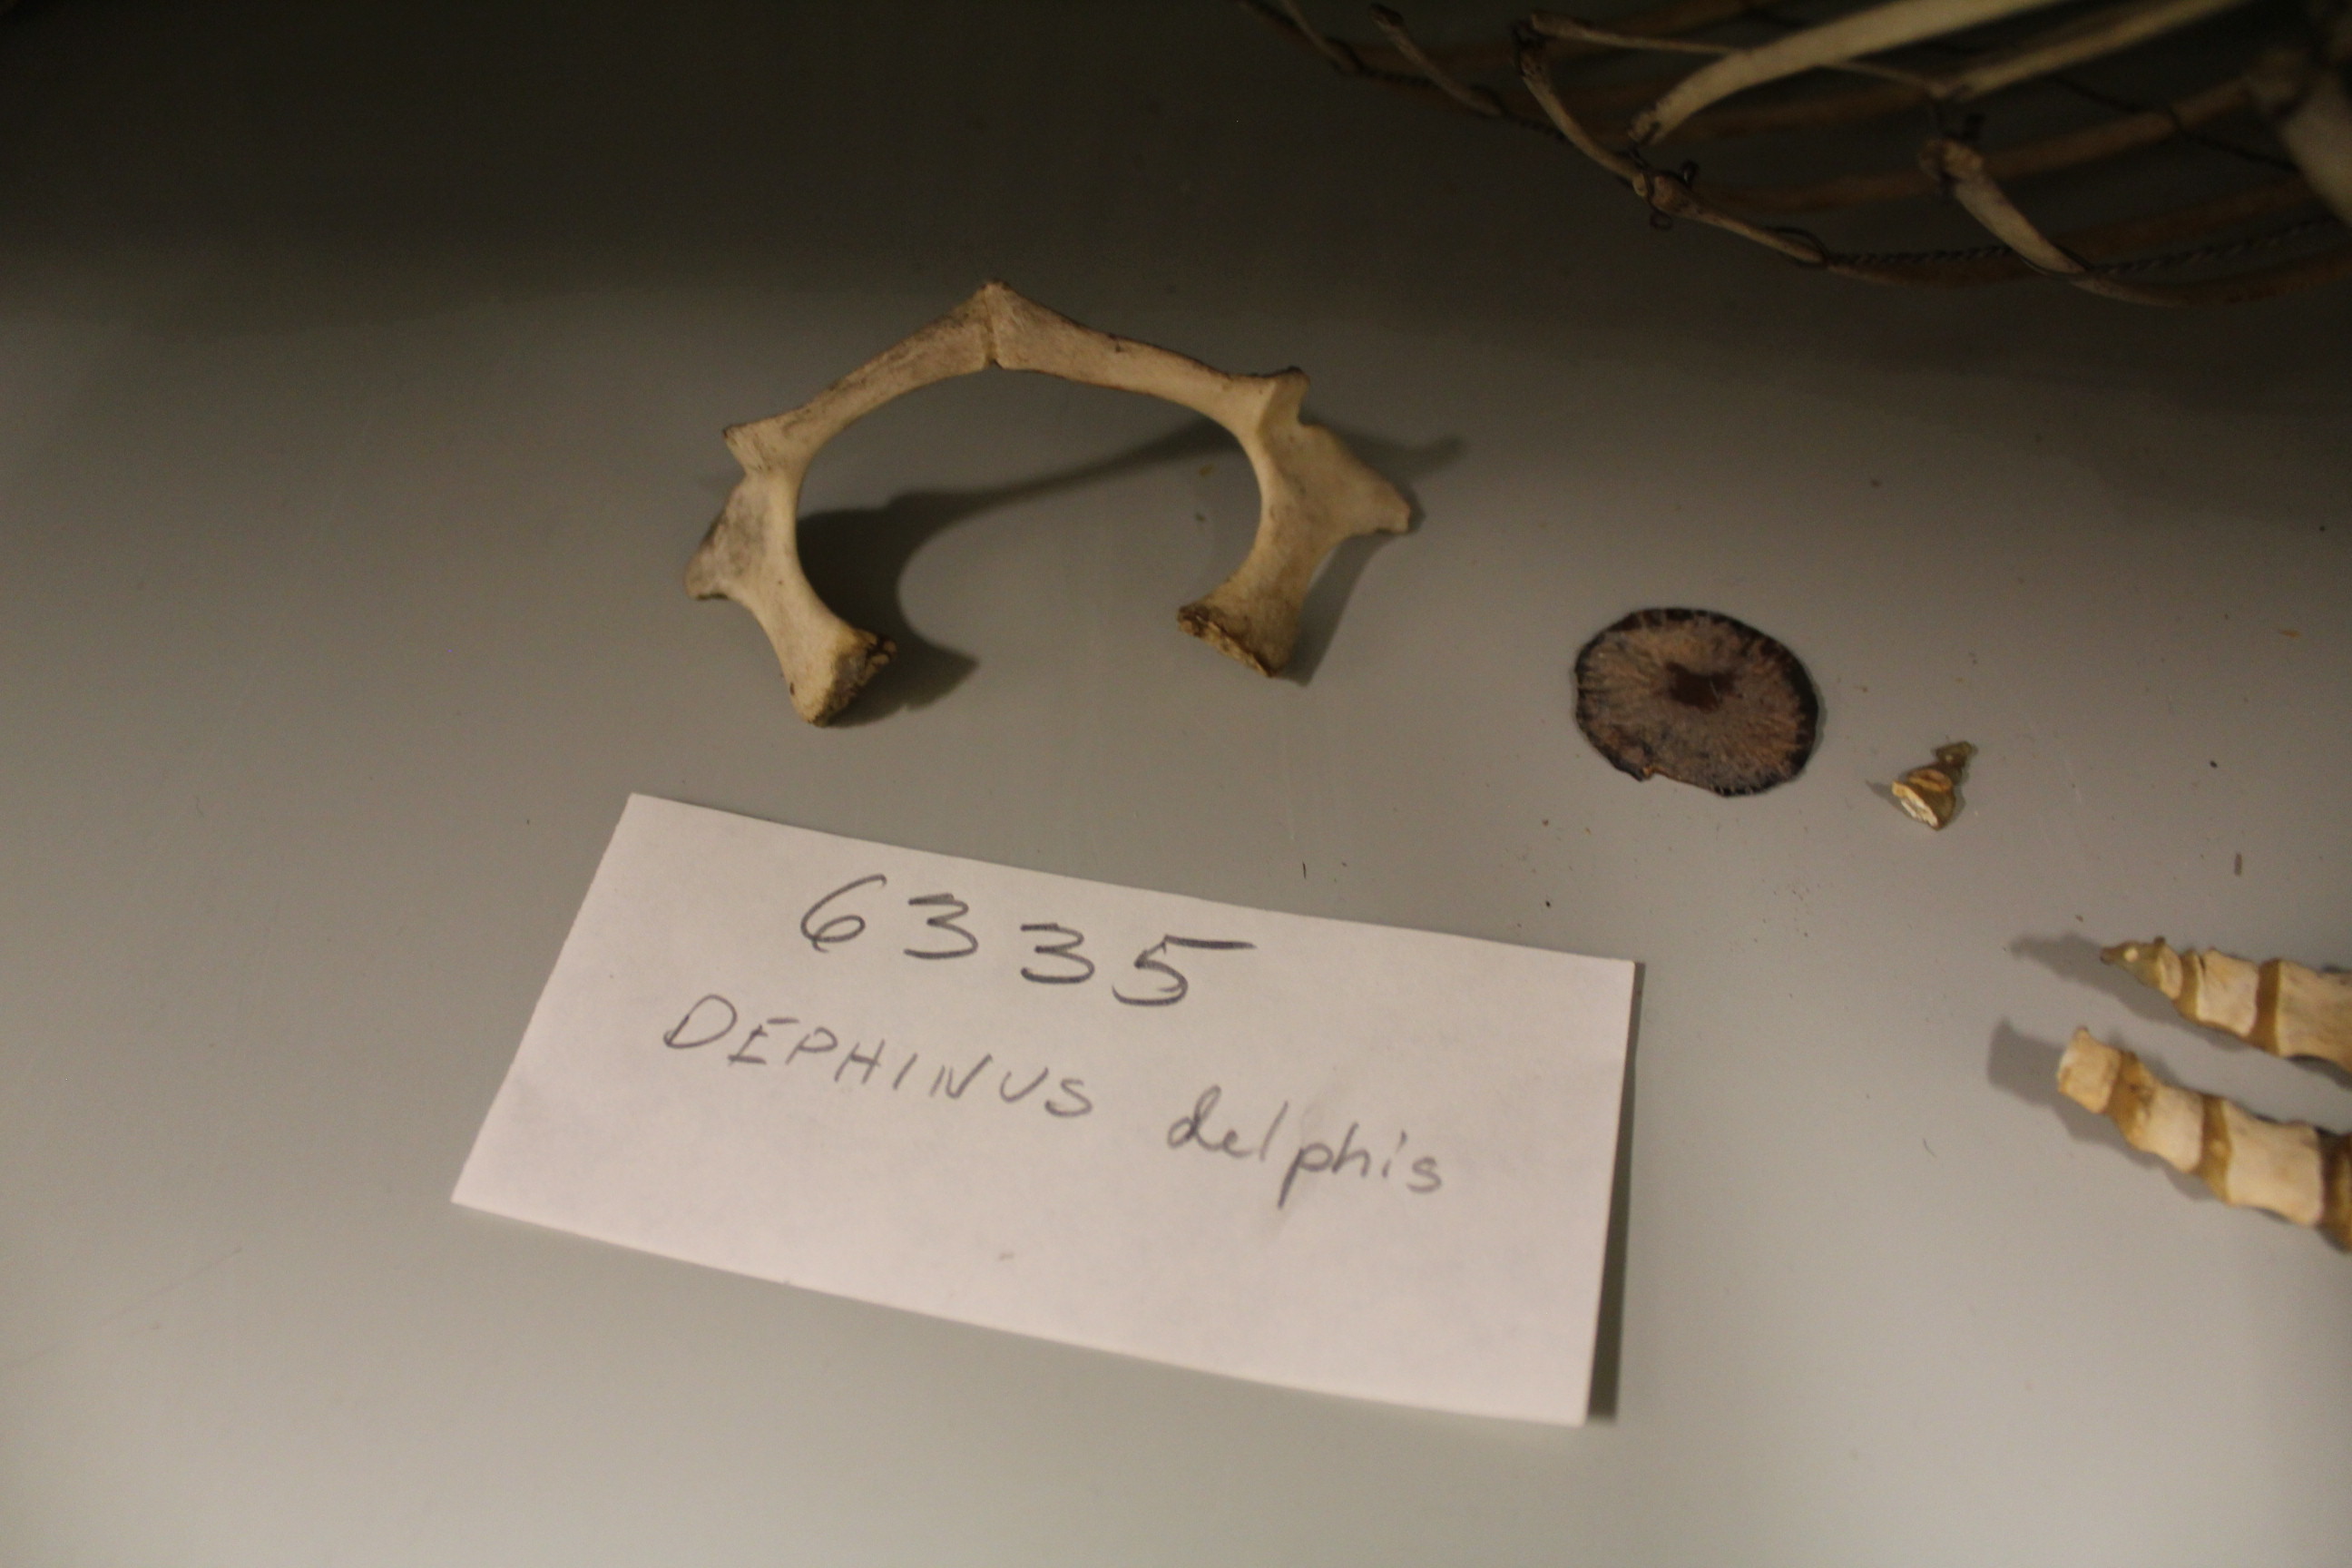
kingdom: Animalia
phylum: Chordata
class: Mammalia
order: Cetacea
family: Delphinidae
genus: Delphinus
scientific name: Delphinus delphis
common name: Common dolphin
